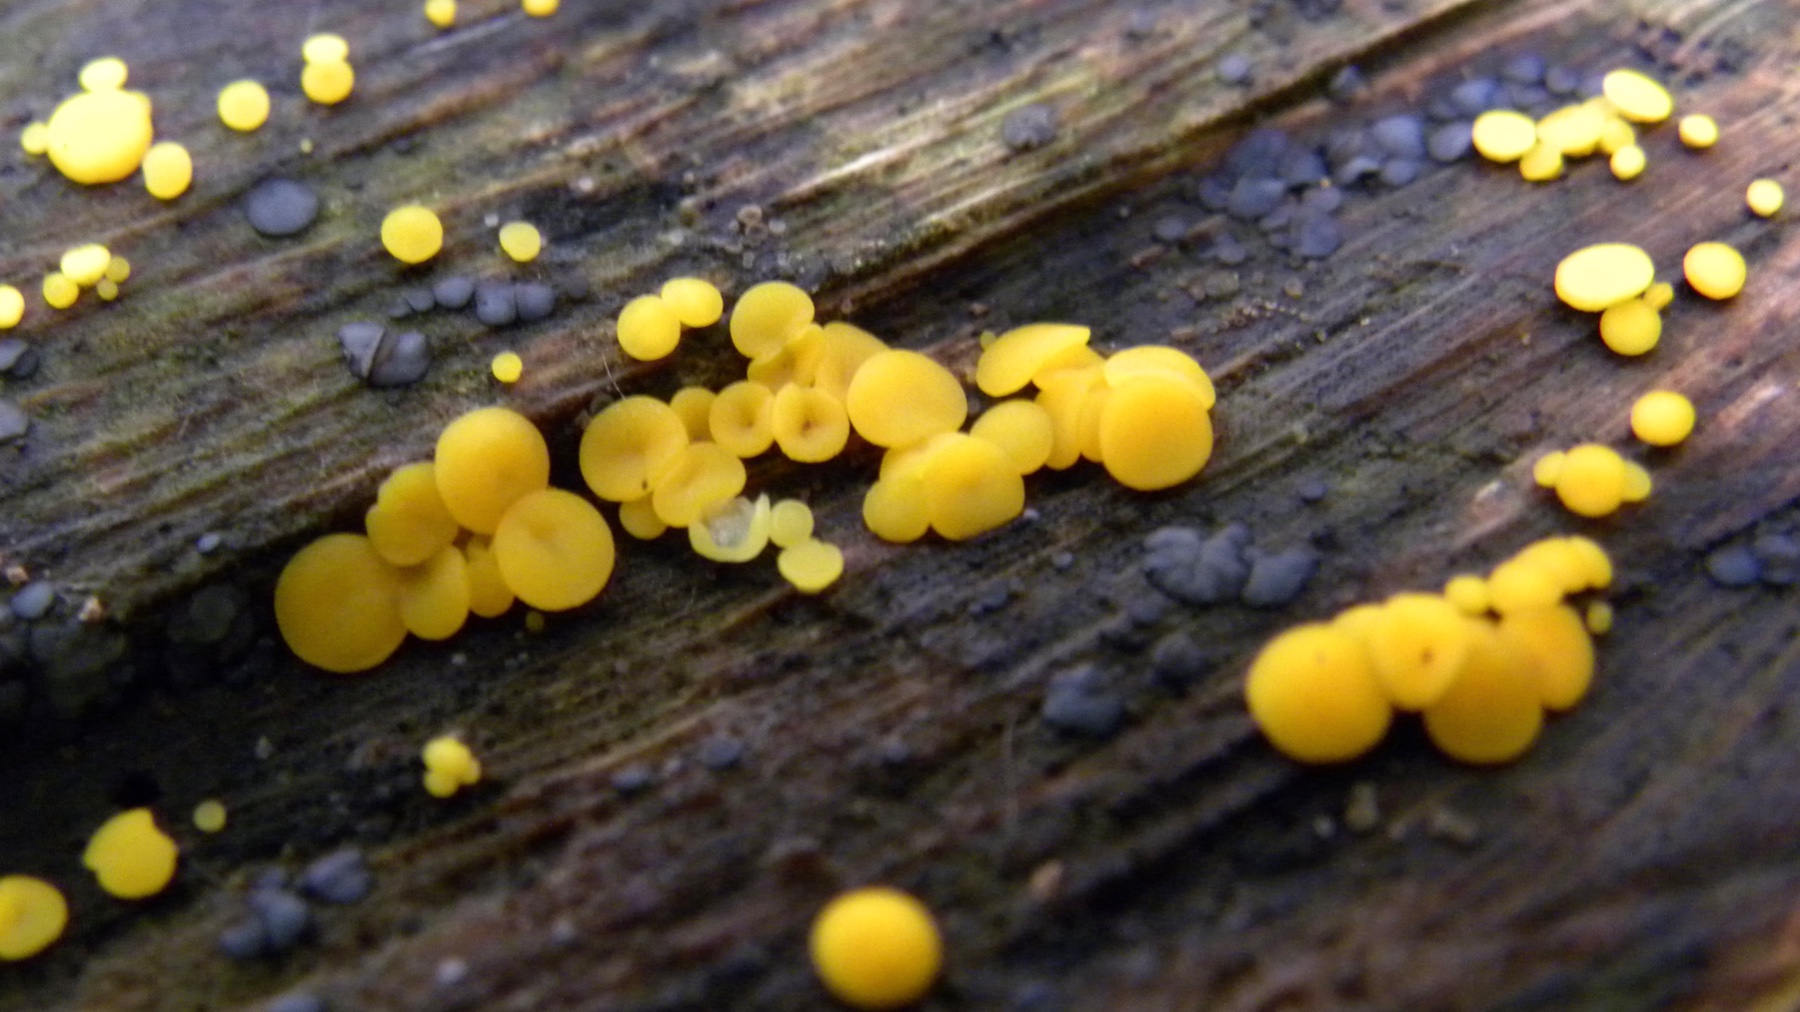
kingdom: Fungi
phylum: Ascomycota
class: Leotiomycetes
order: Helotiales
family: Pezizellaceae
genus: Calycina
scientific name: Calycina citrina
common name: almindelig gulskive
